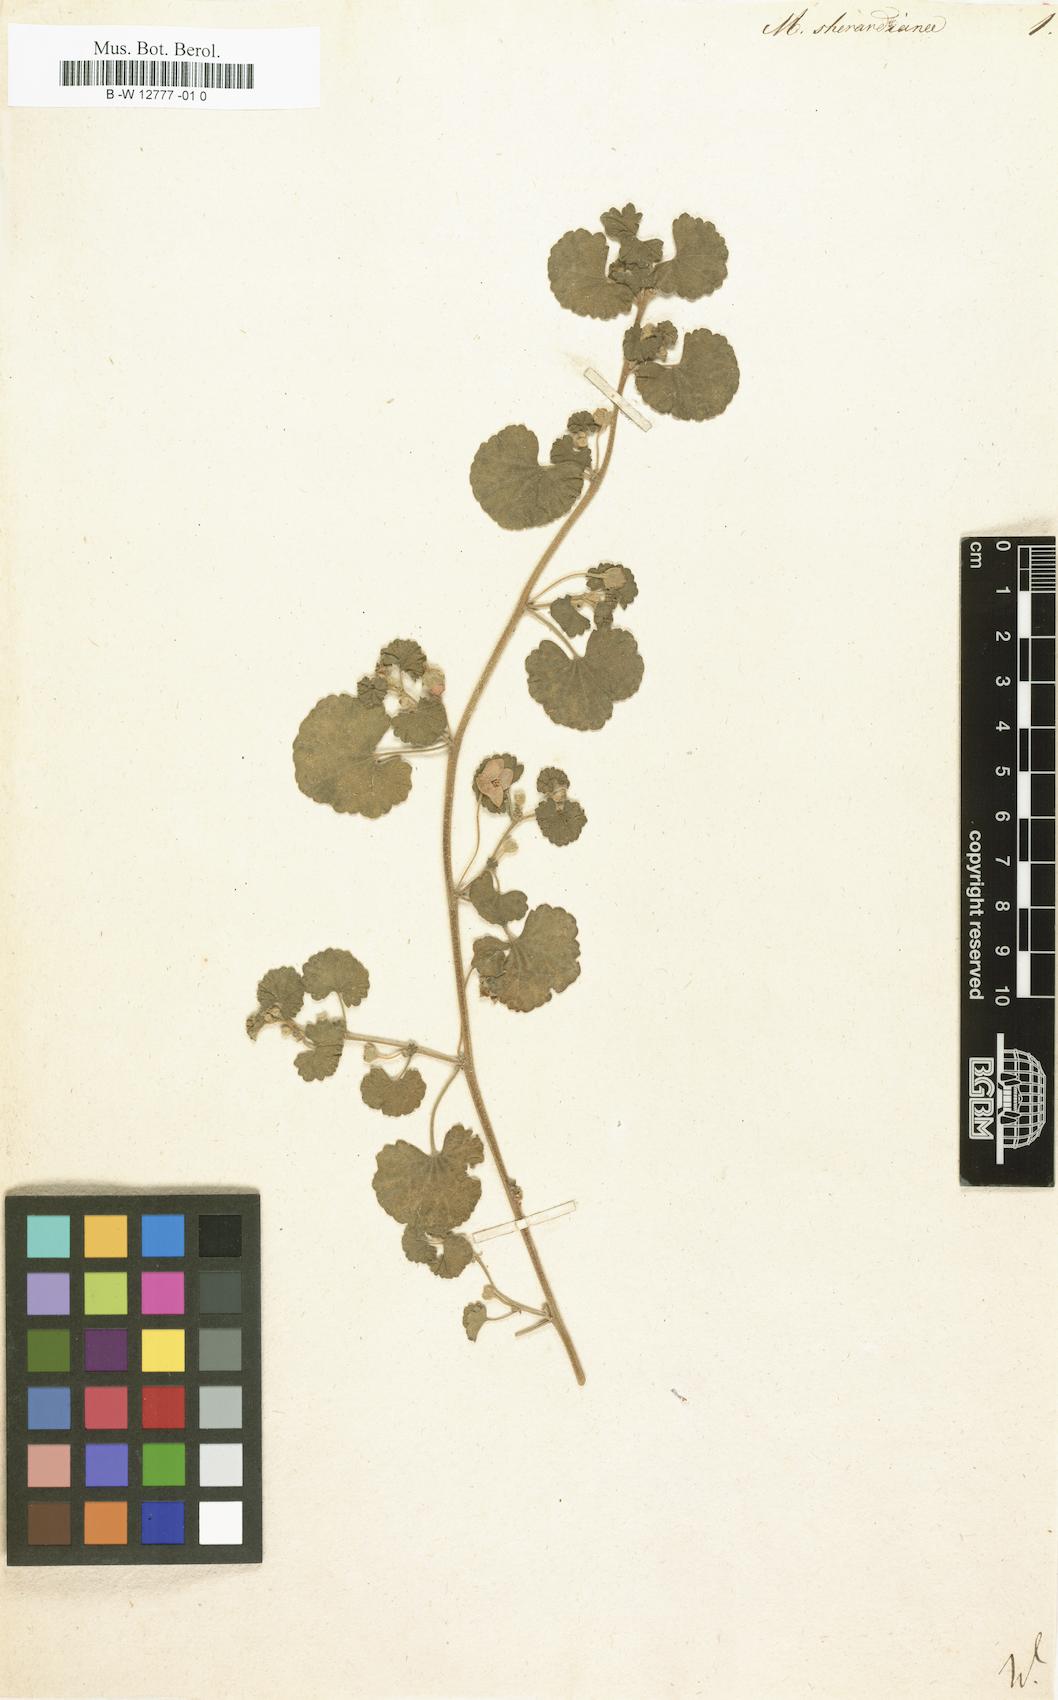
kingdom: Plantae
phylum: Tracheophyta
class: Magnoliopsida
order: Malvales
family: Malvaceae
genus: Malvella
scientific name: Malvella sherardiana
